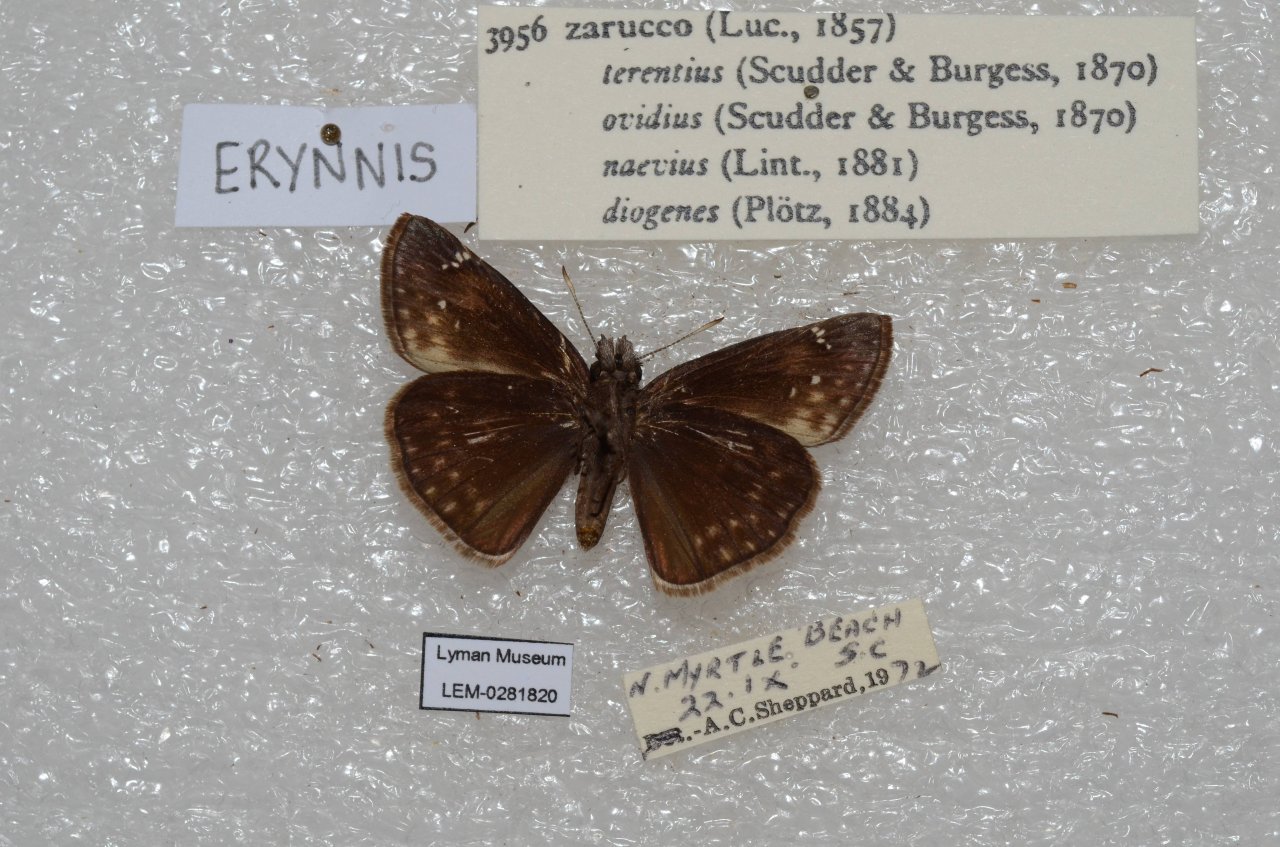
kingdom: Animalia
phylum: Arthropoda
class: Insecta
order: Lepidoptera
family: Hesperiidae
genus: Erynnis
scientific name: Erynnis zarucco
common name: Zarucco Duskywing
